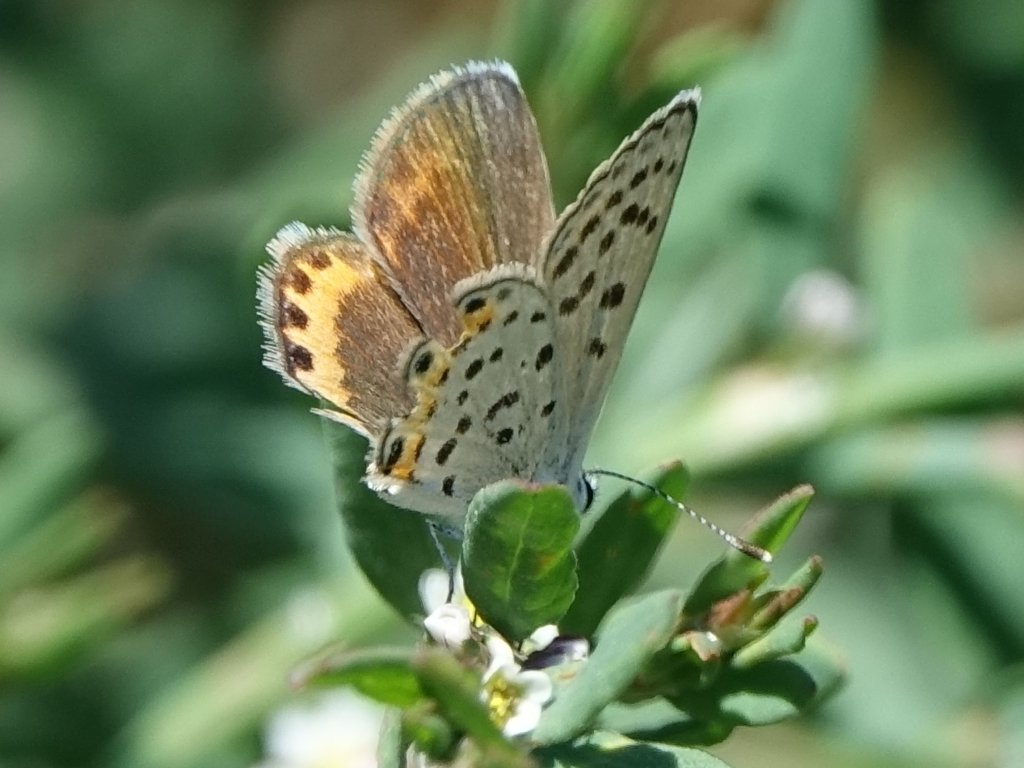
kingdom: Animalia
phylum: Arthropoda
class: Insecta
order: Lepidoptera
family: Lycaenidae
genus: Plebejus
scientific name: Plebejus acmon
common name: Acmon Blue
